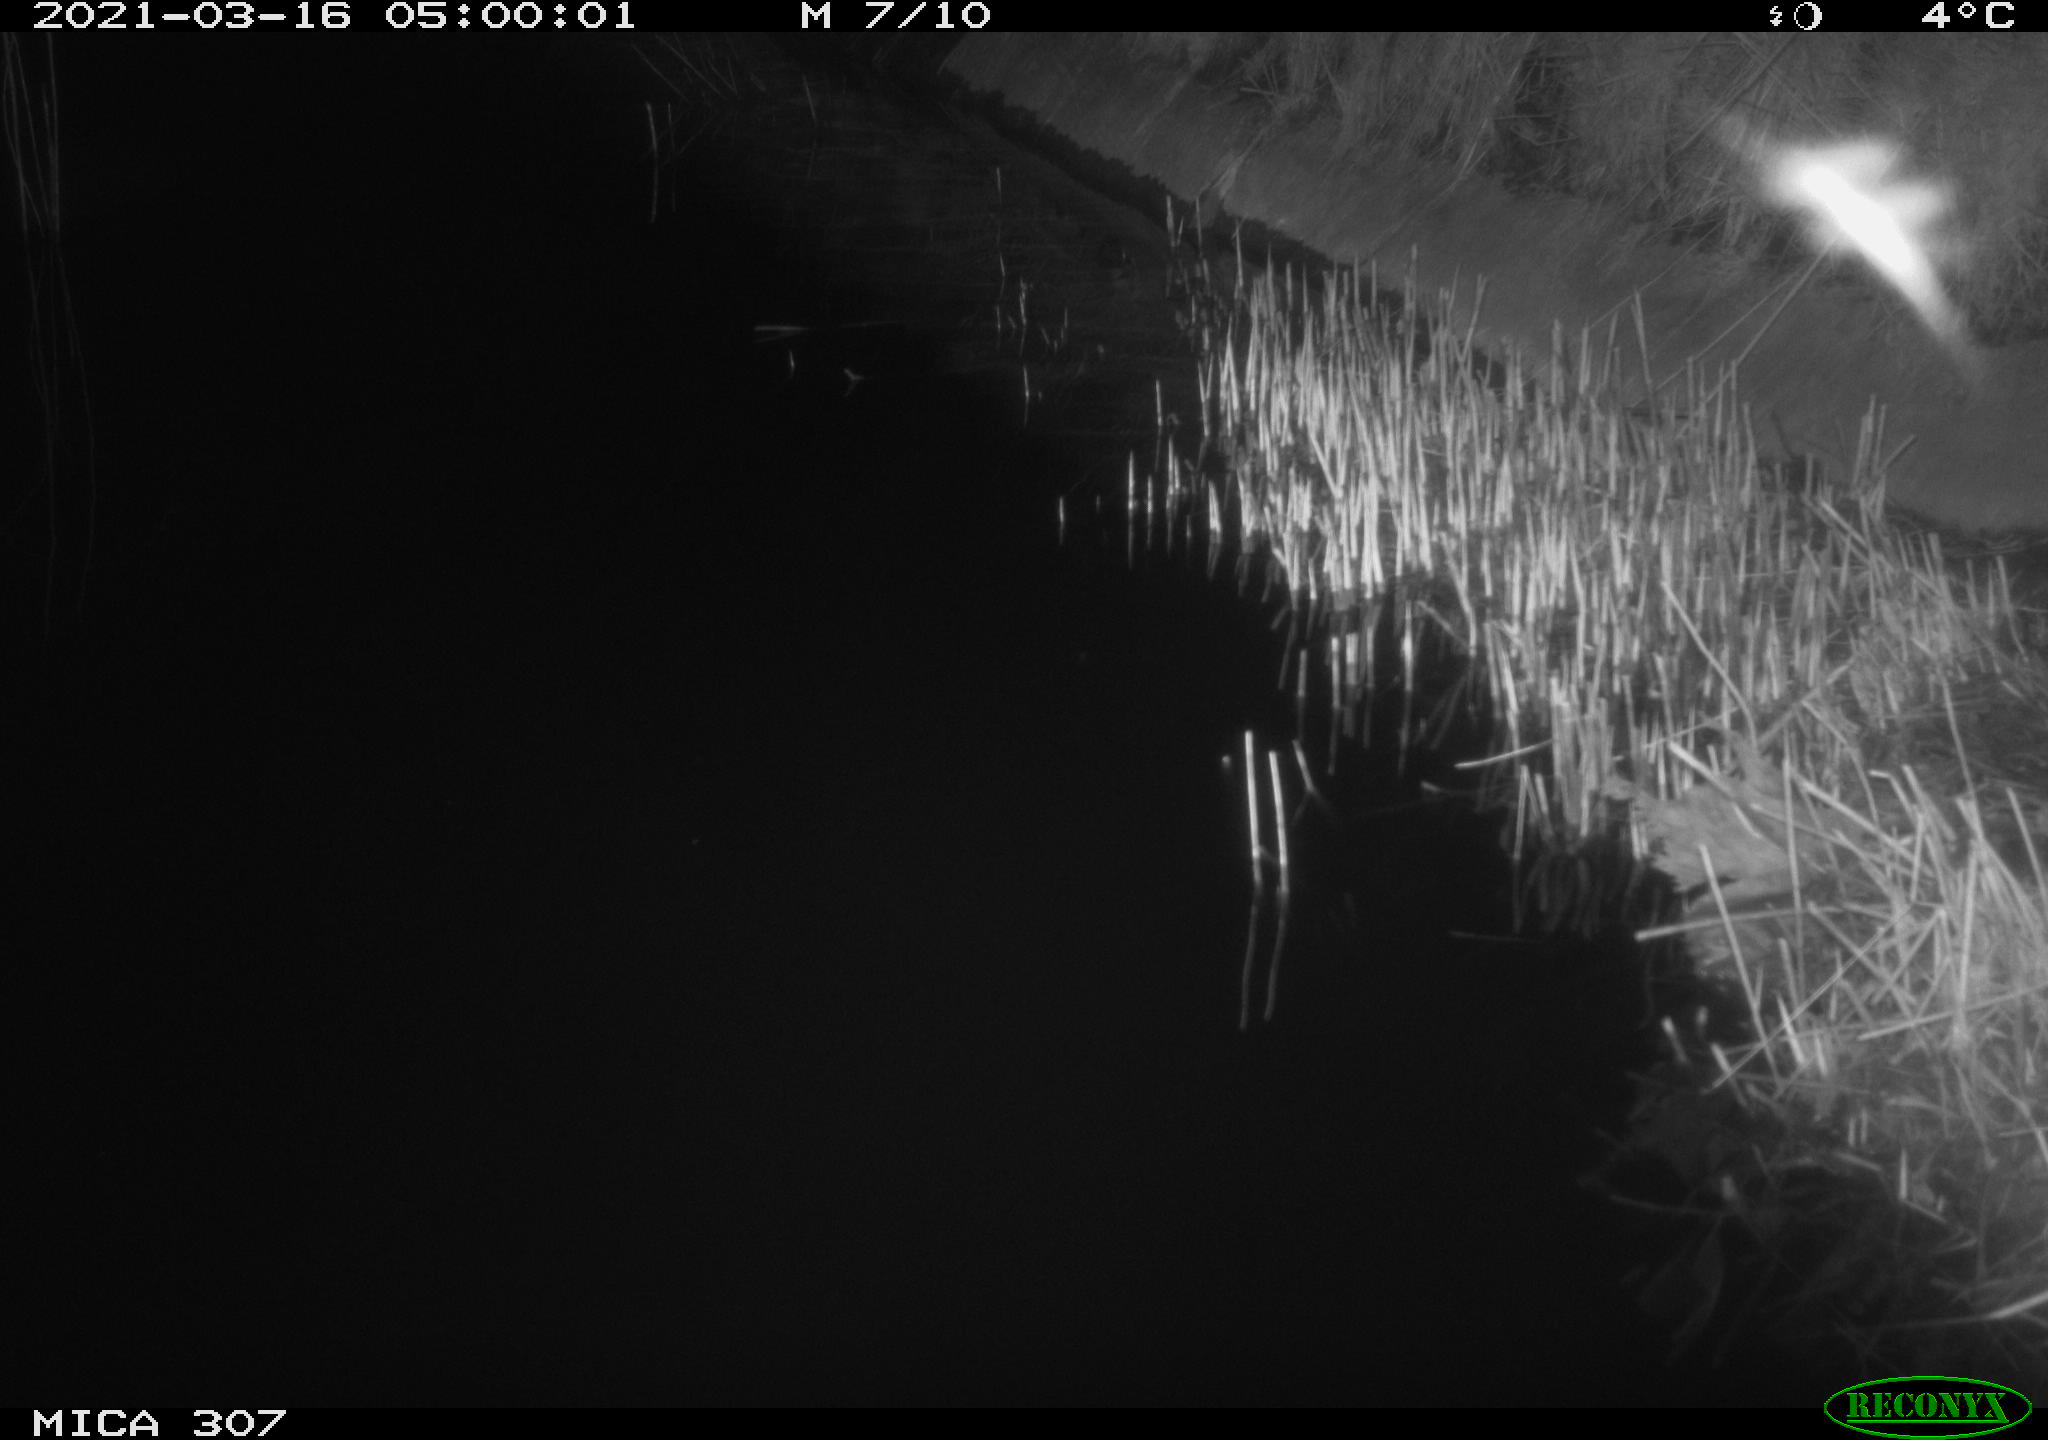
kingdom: Animalia
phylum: Chordata
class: Aves
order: Anseriformes
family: Anatidae
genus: Anas
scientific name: Anas platyrhynchos
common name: Mallard
